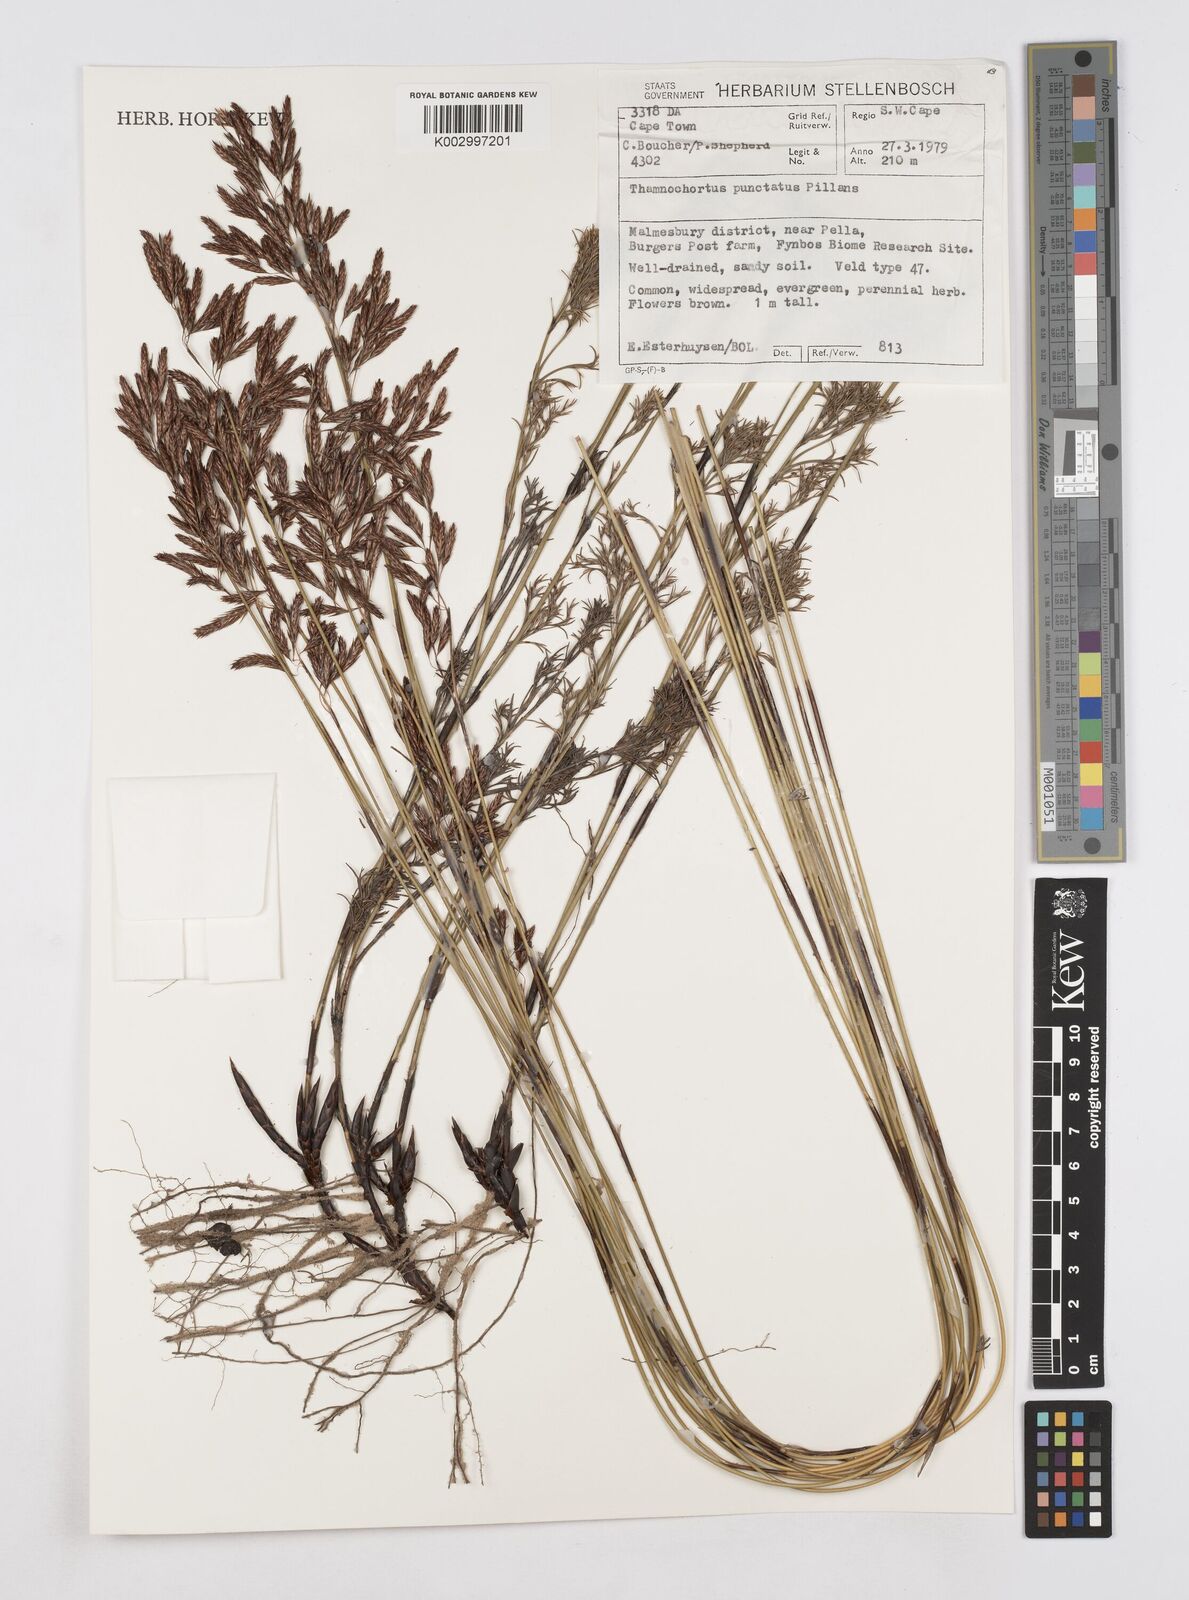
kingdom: Plantae
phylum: Tracheophyta
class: Liliopsida
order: Poales
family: Restionaceae
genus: Thamnochortus
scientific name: Thamnochortus punctatus
